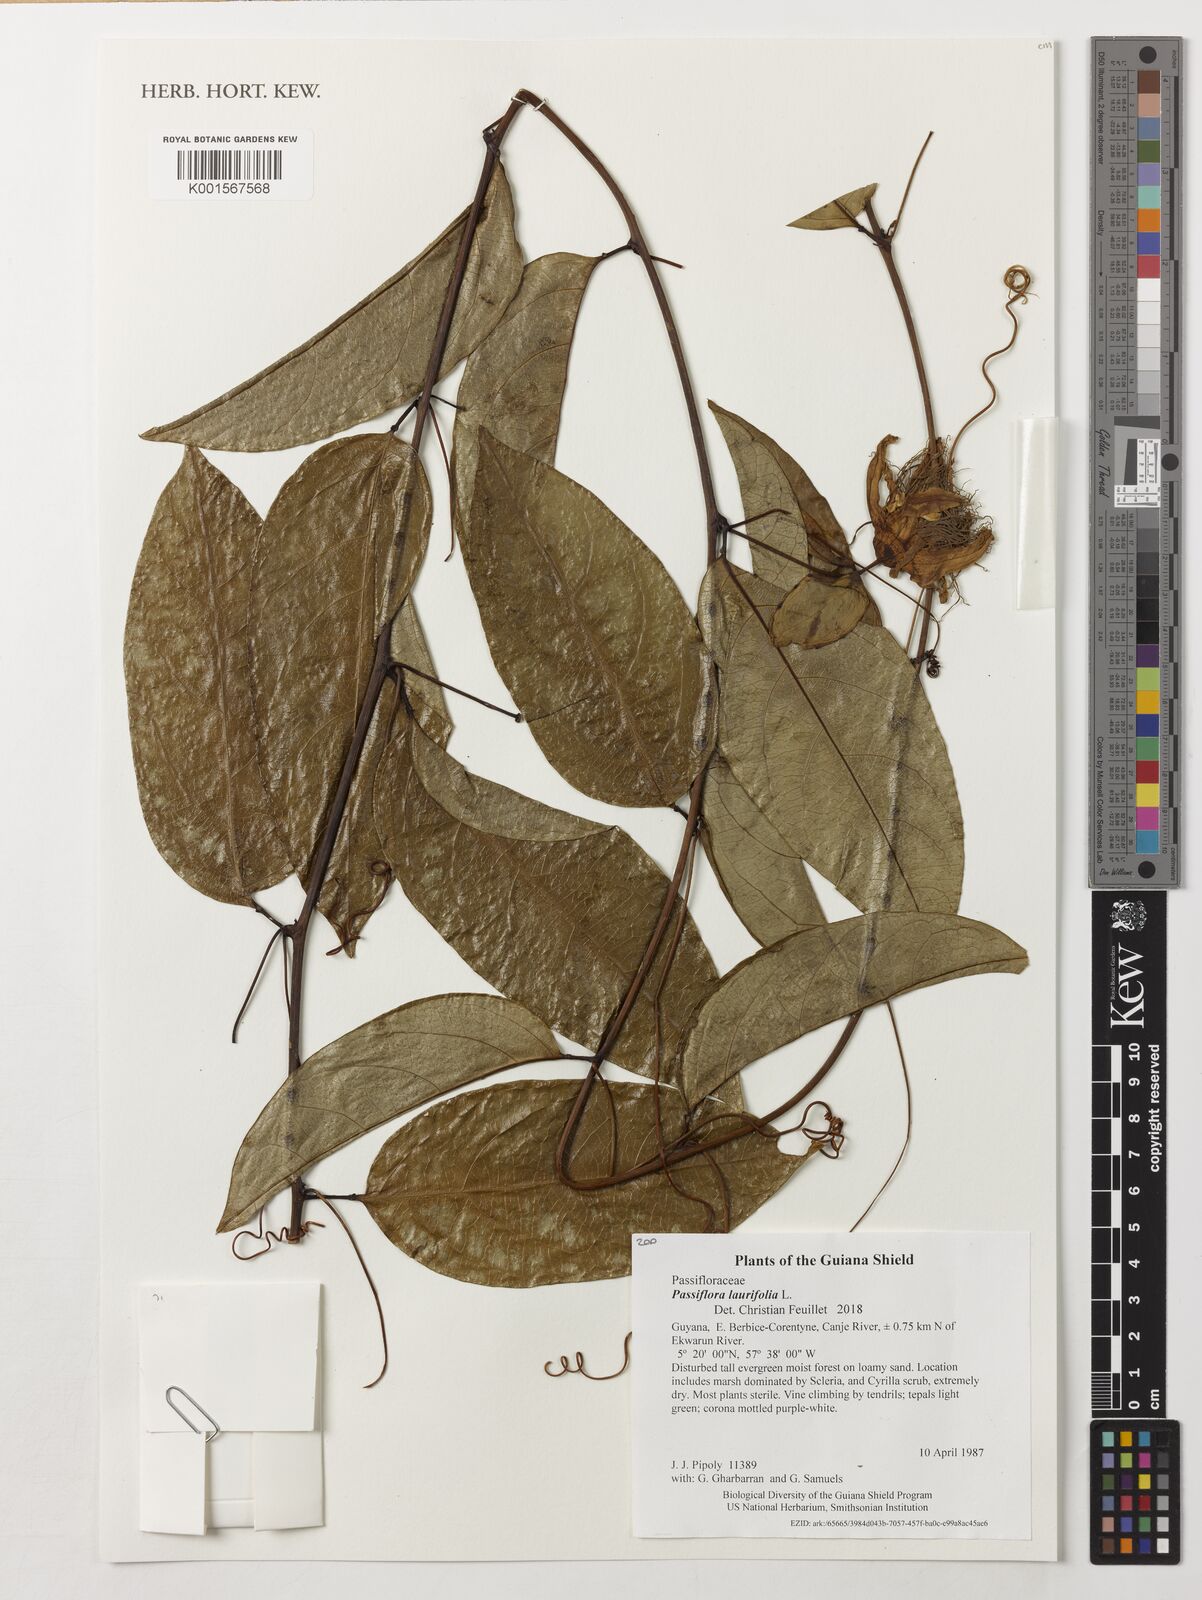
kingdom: Plantae
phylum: Tracheophyta
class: Magnoliopsida
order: Malpighiales
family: Passifloraceae
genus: Passiflora
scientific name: Passiflora laurifolia
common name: Bell apple
